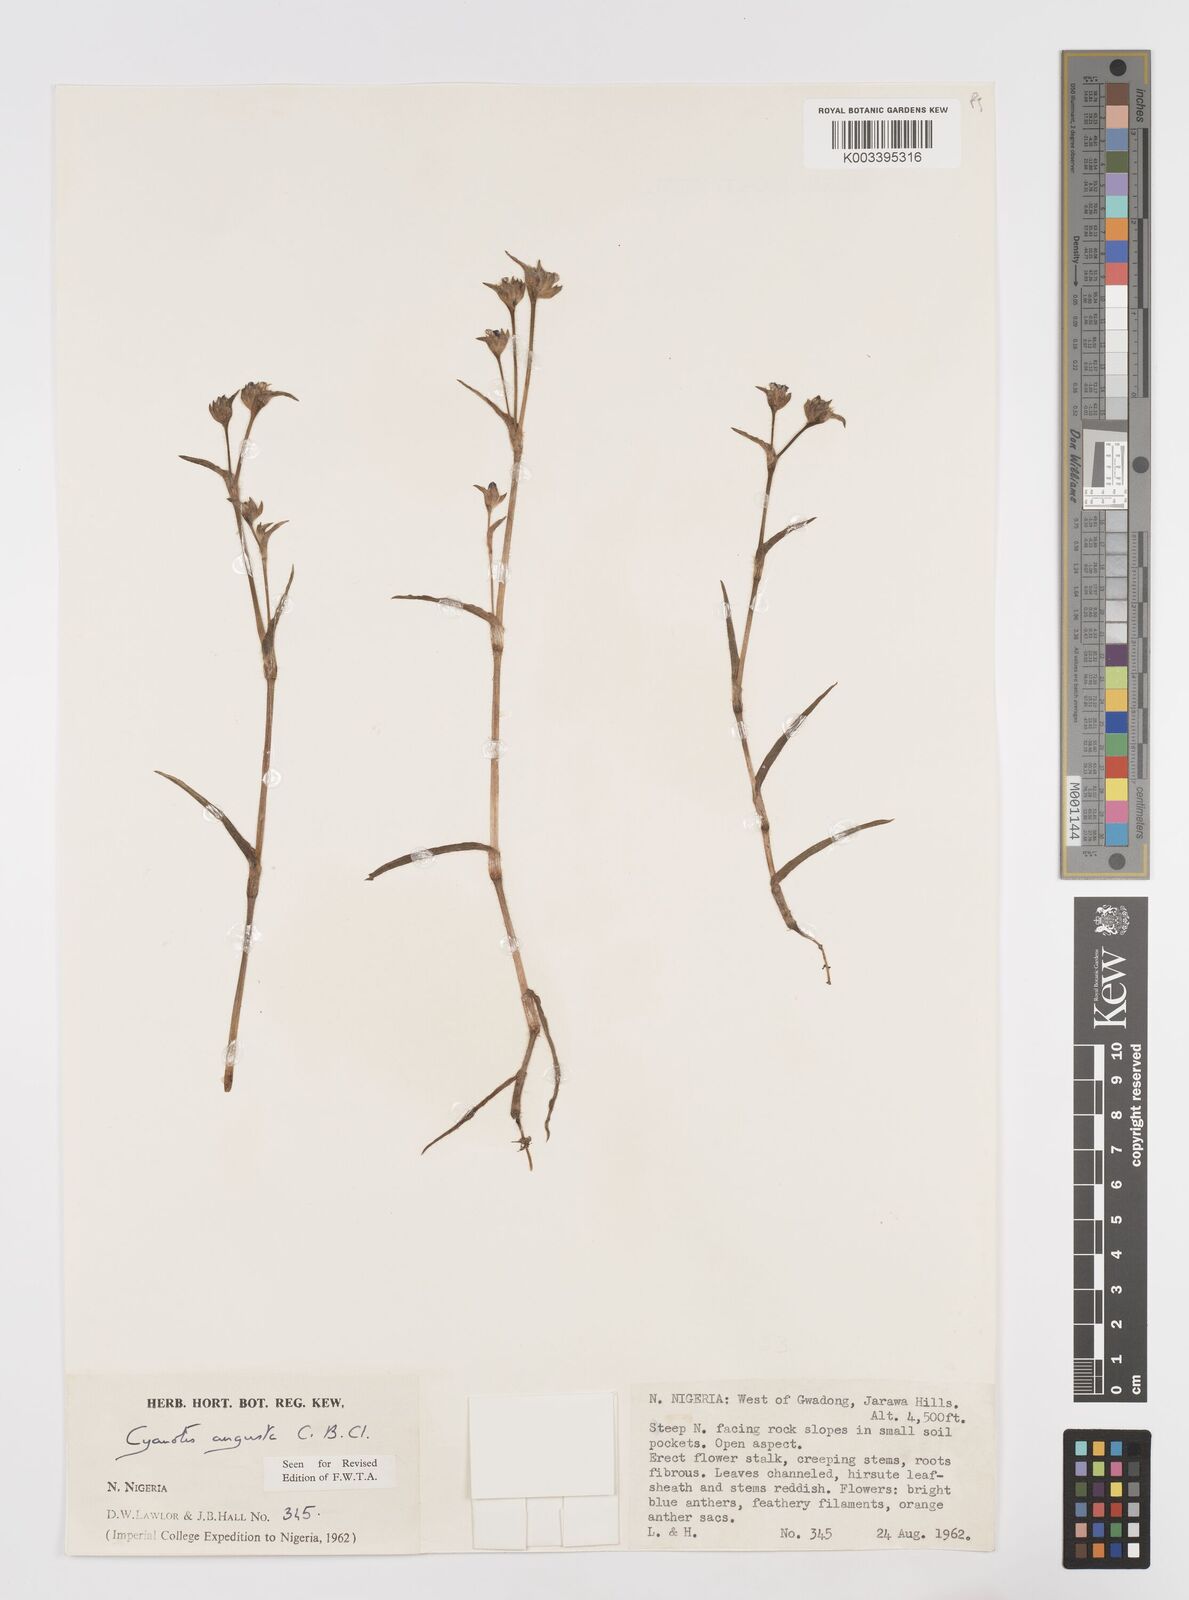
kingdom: Plantae
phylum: Tracheophyta
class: Liliopsida
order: Commelinales
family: Commelinaceae
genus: Cyanotis
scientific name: Cyanotis angusta
